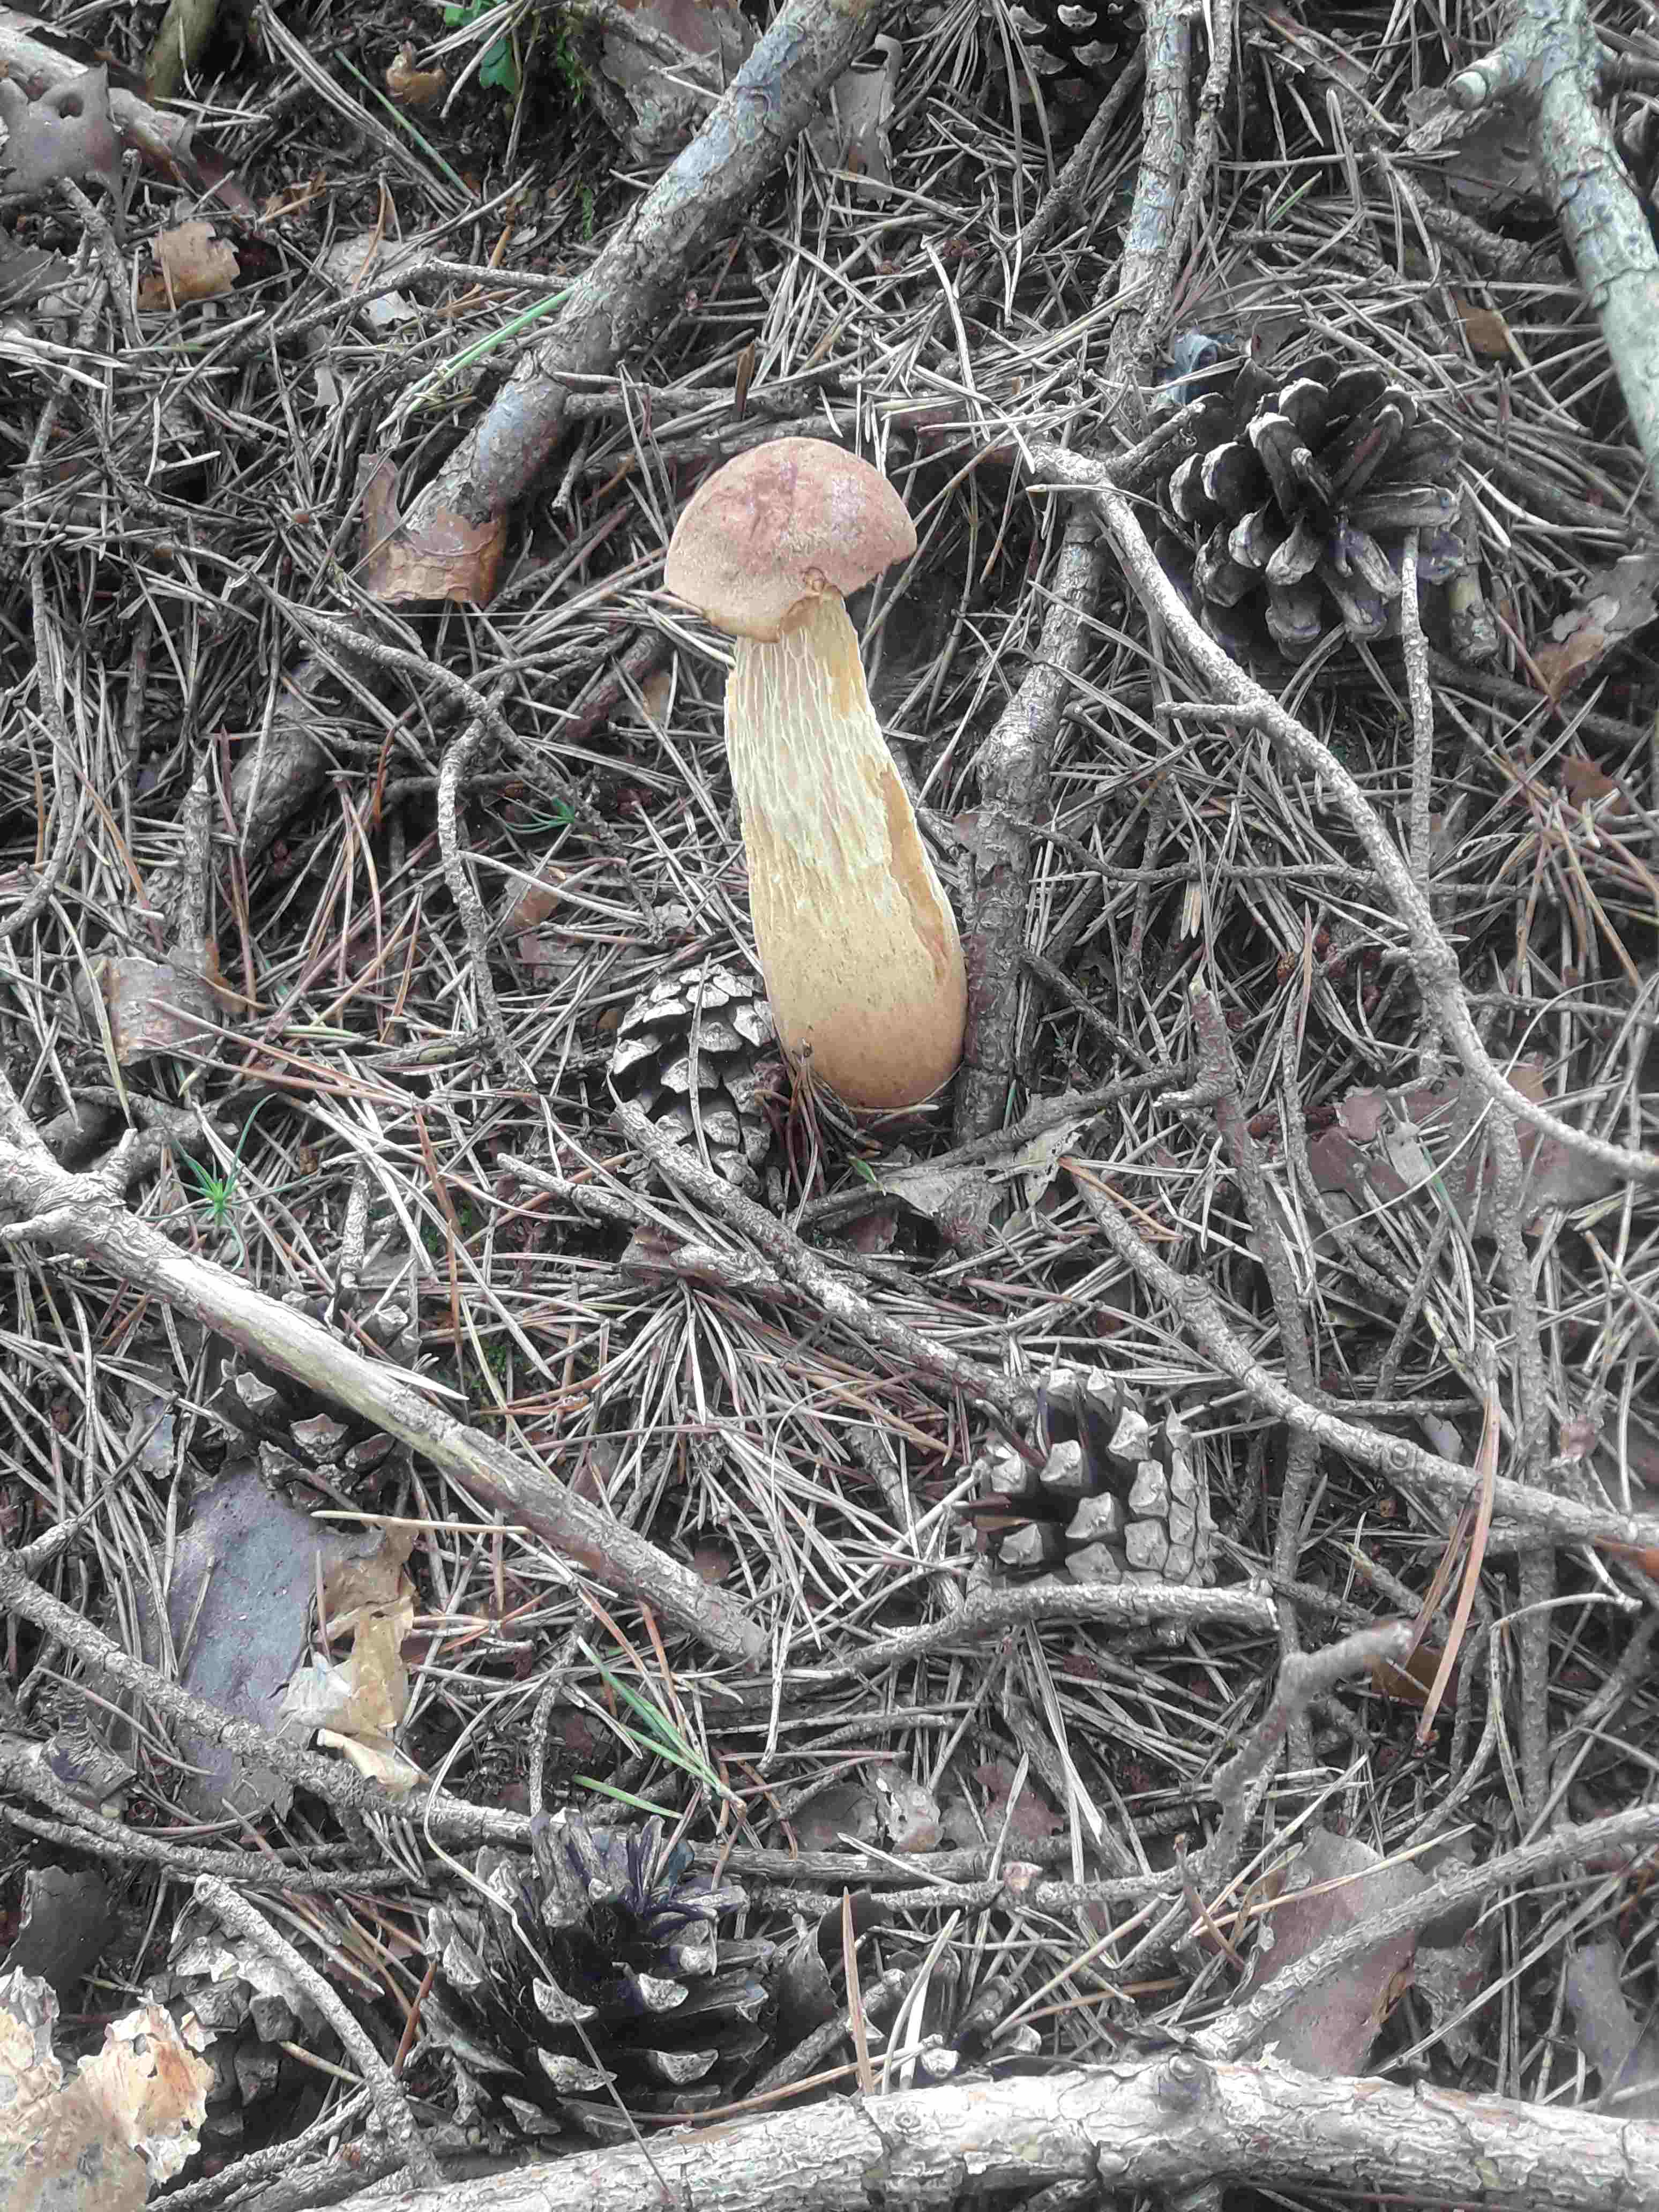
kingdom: Fungi
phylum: Basidiomycota
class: Agaricomycetes
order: Boletales
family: Boletaceae
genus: Aureoboletus
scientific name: Aureoboletus projectellus
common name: ribbestokket rørhat
